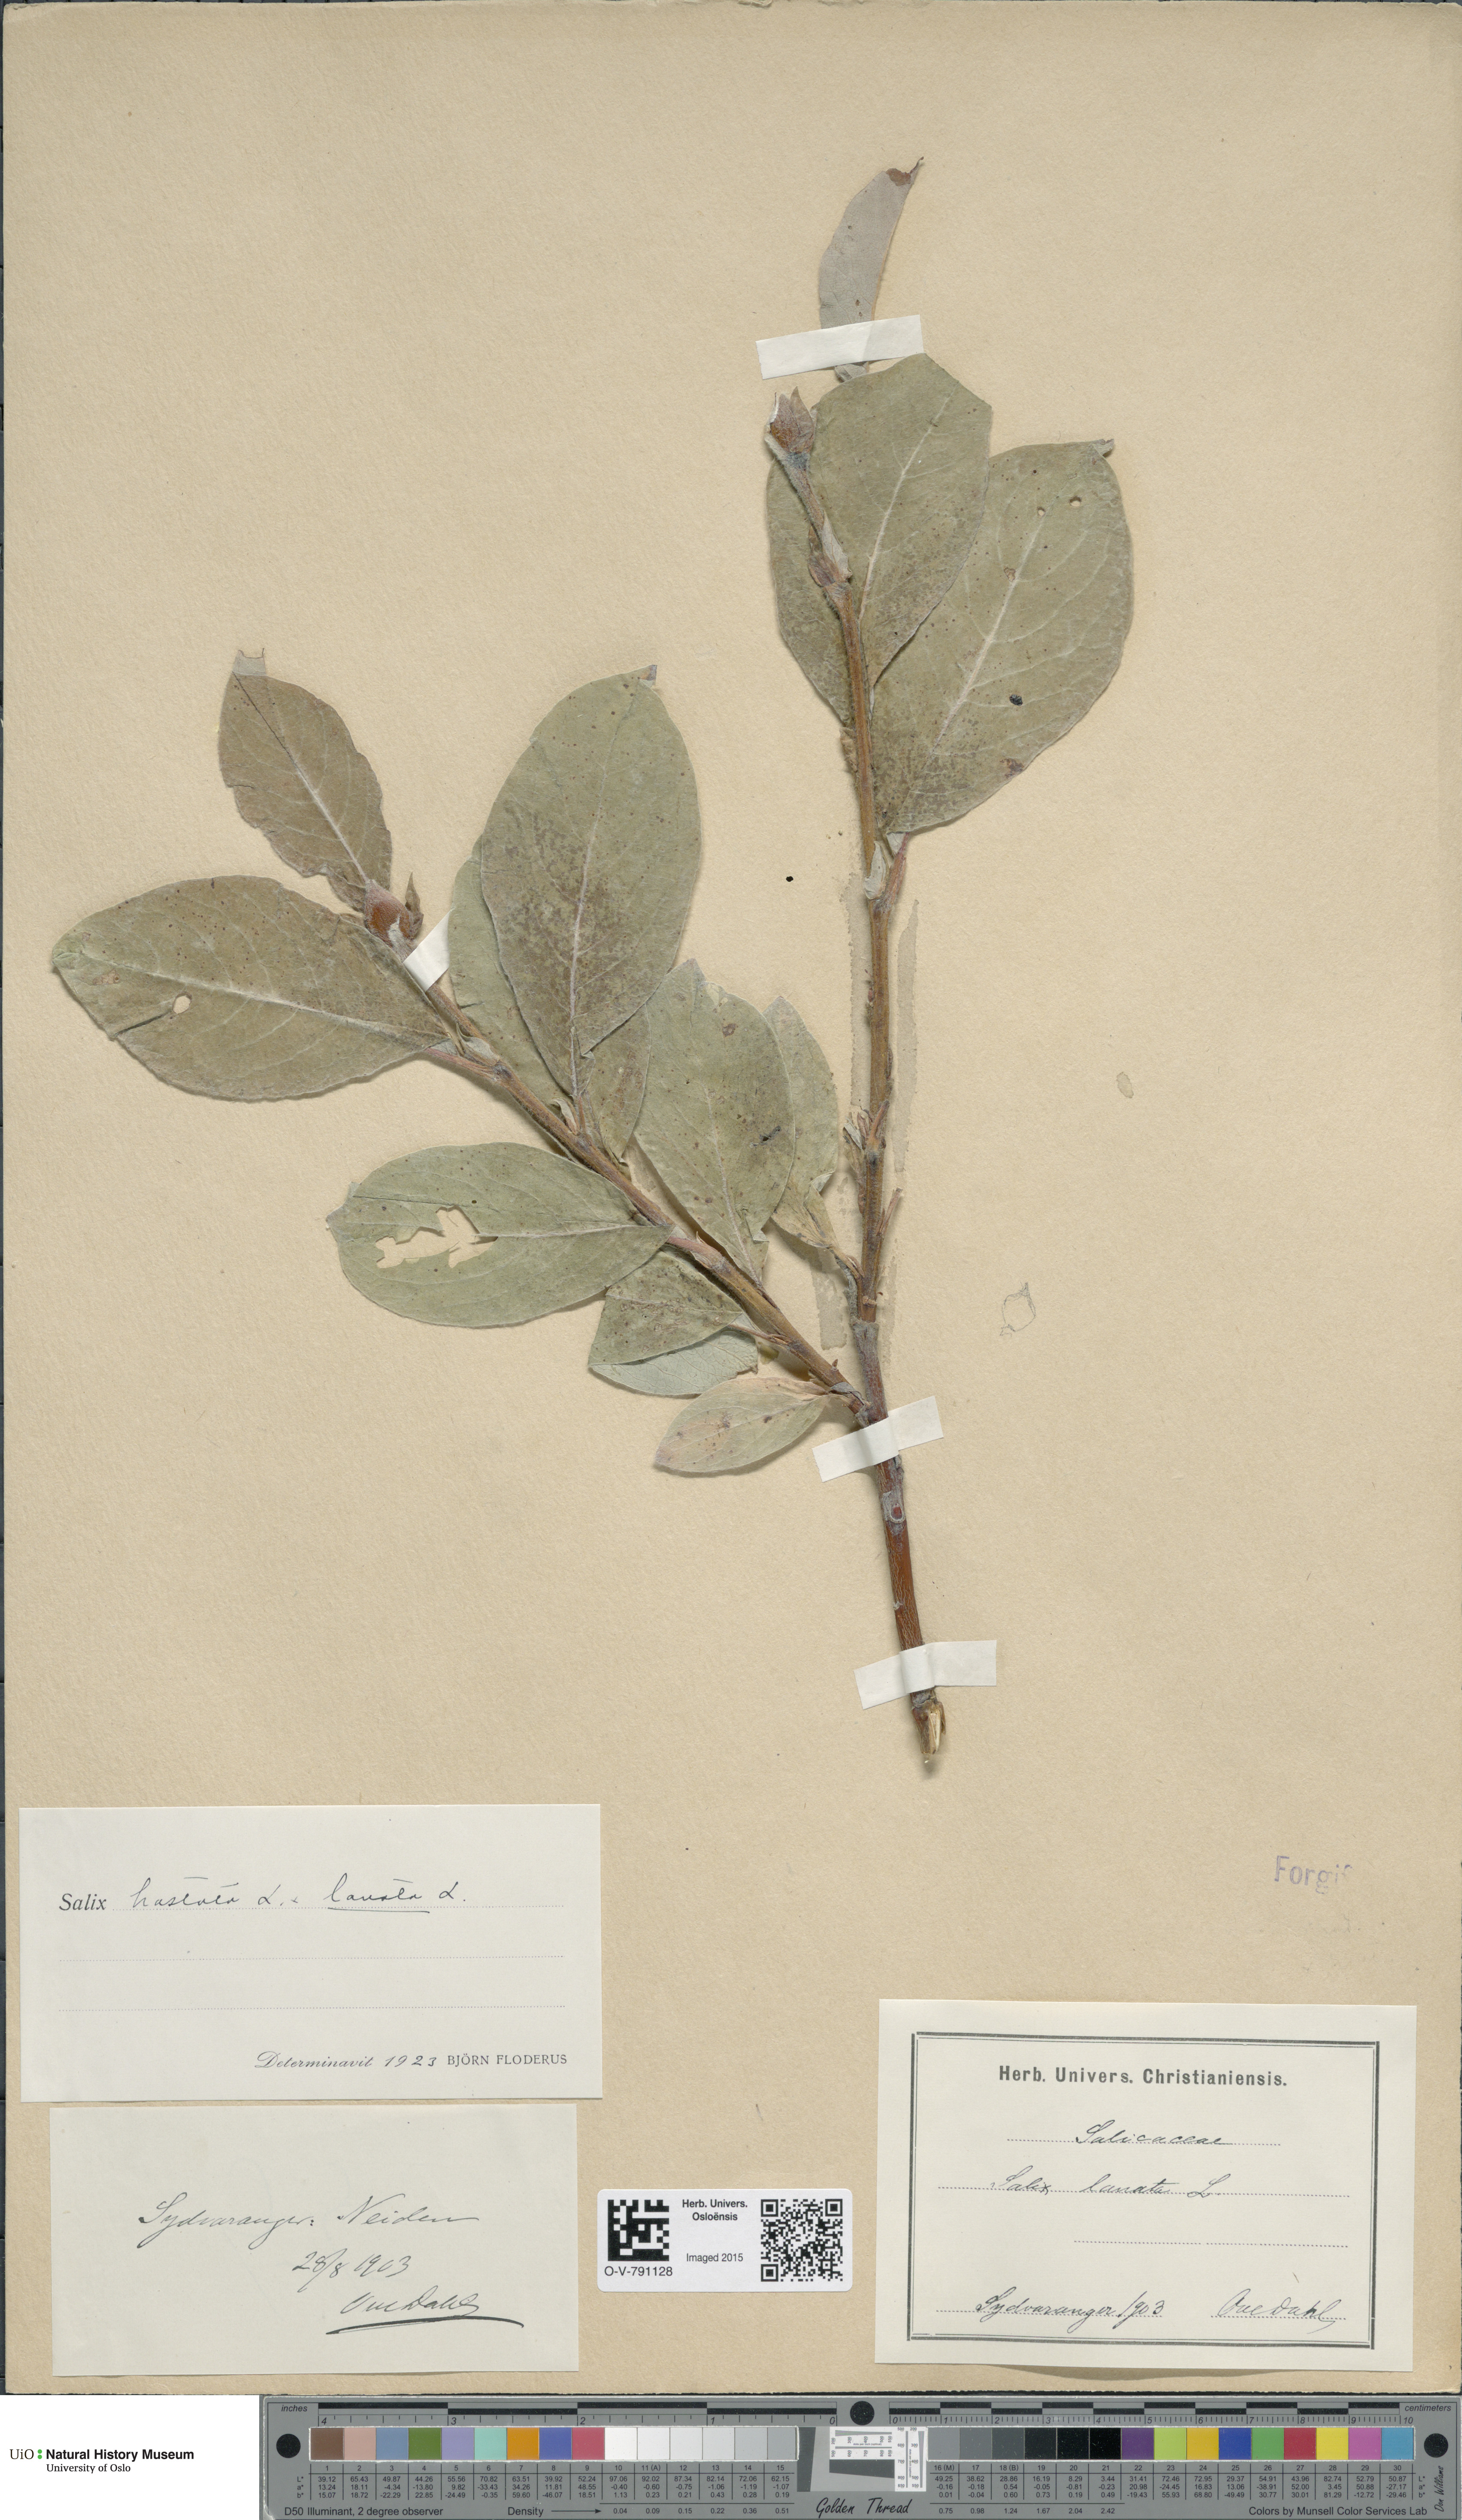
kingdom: Plantae
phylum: Tracheophyta
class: Magnoliopsida
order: Malpighiales
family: Salicaceae
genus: Salix
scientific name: Salix
